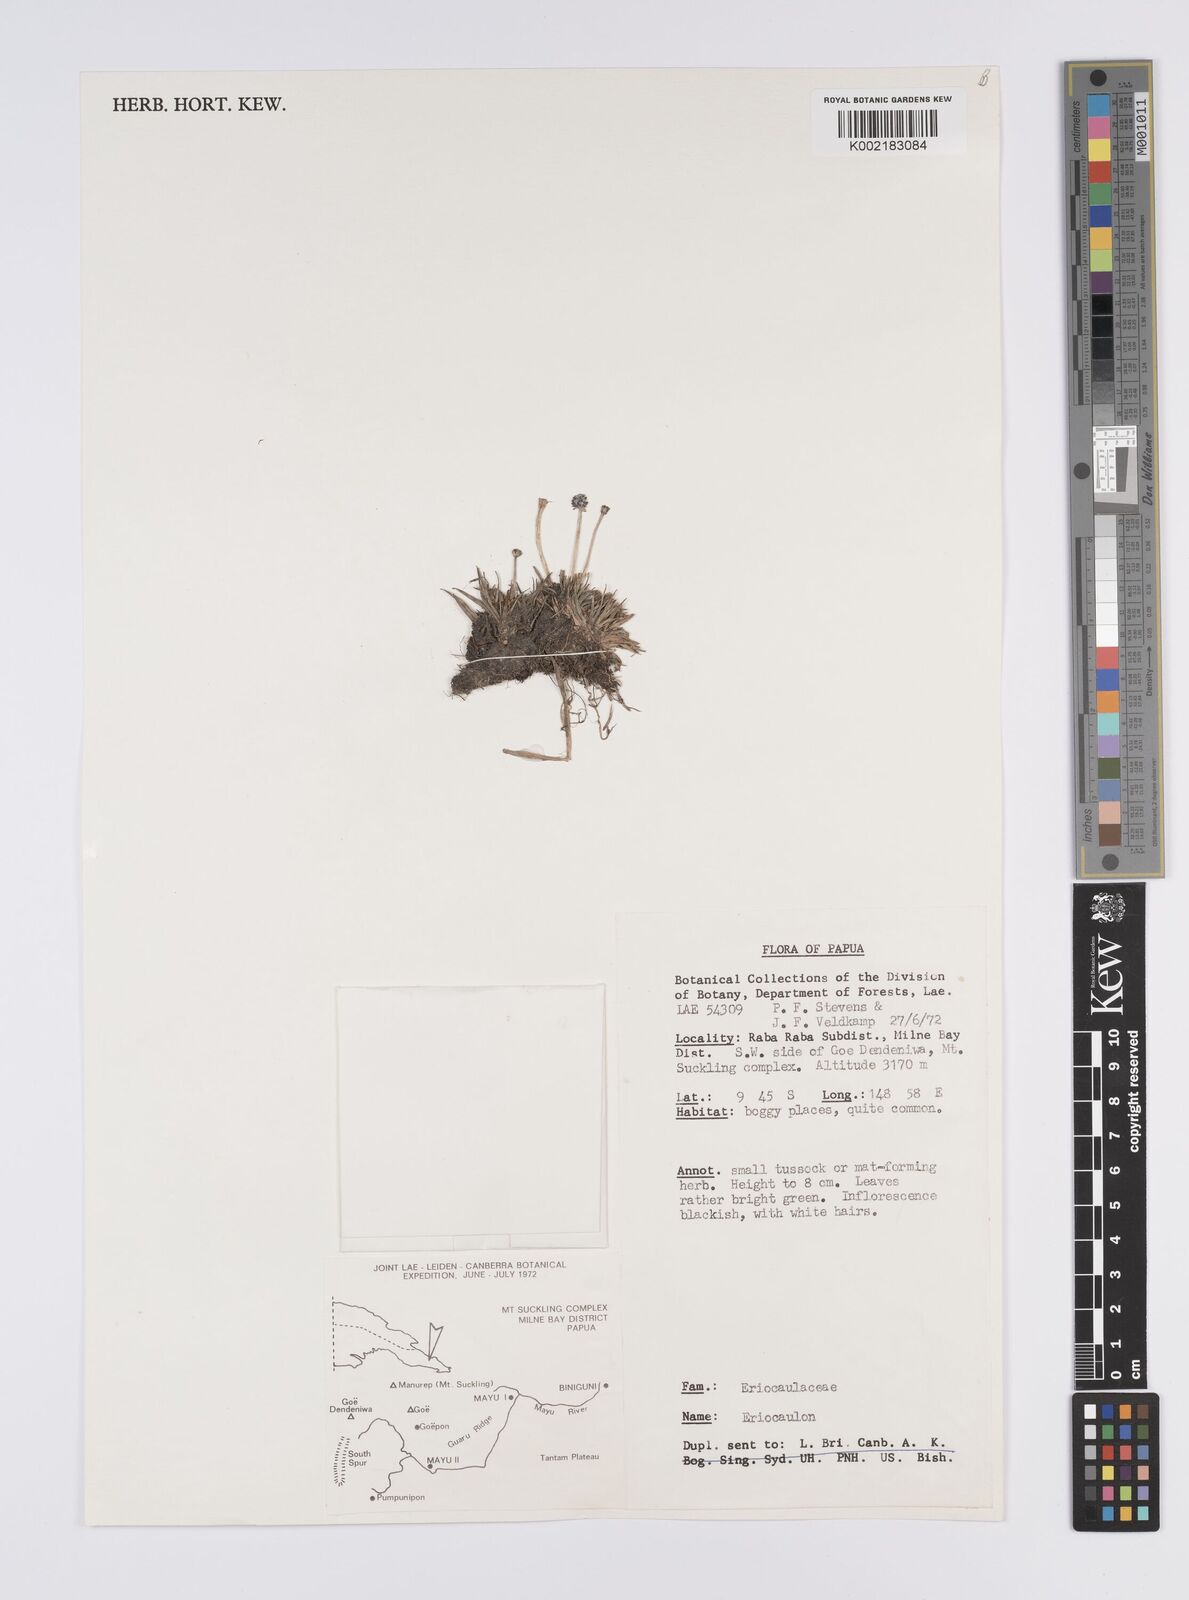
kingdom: Plantae
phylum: Tracheophyta
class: Liliopsida
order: Poales
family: Eriocaulaceae
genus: Eriocaulon
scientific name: Eriocaulon
